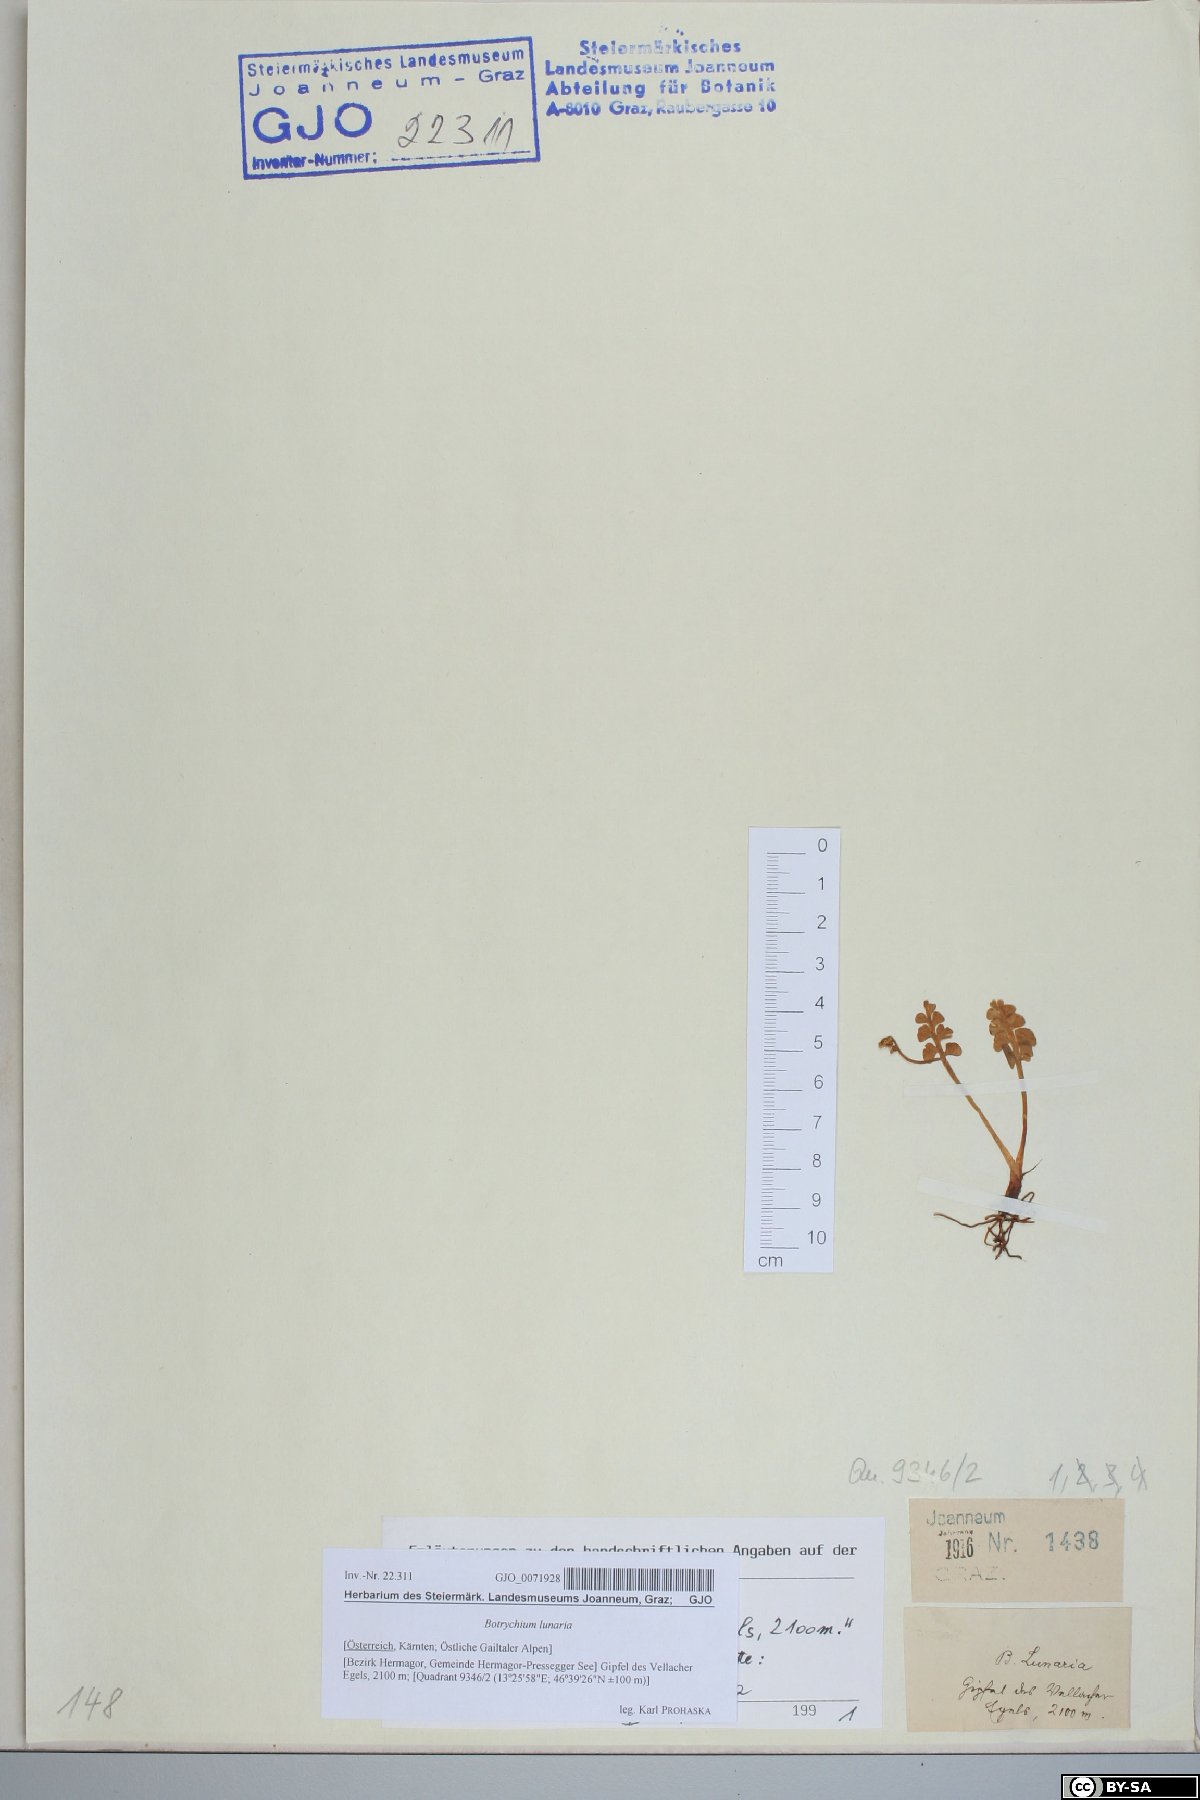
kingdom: Plantae
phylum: Tracheophyta
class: Polypodiopsida
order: Ophioglossales
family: Ophioglossaceae
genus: Botrychium
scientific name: Botrychium lunaria
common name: Moonwort
